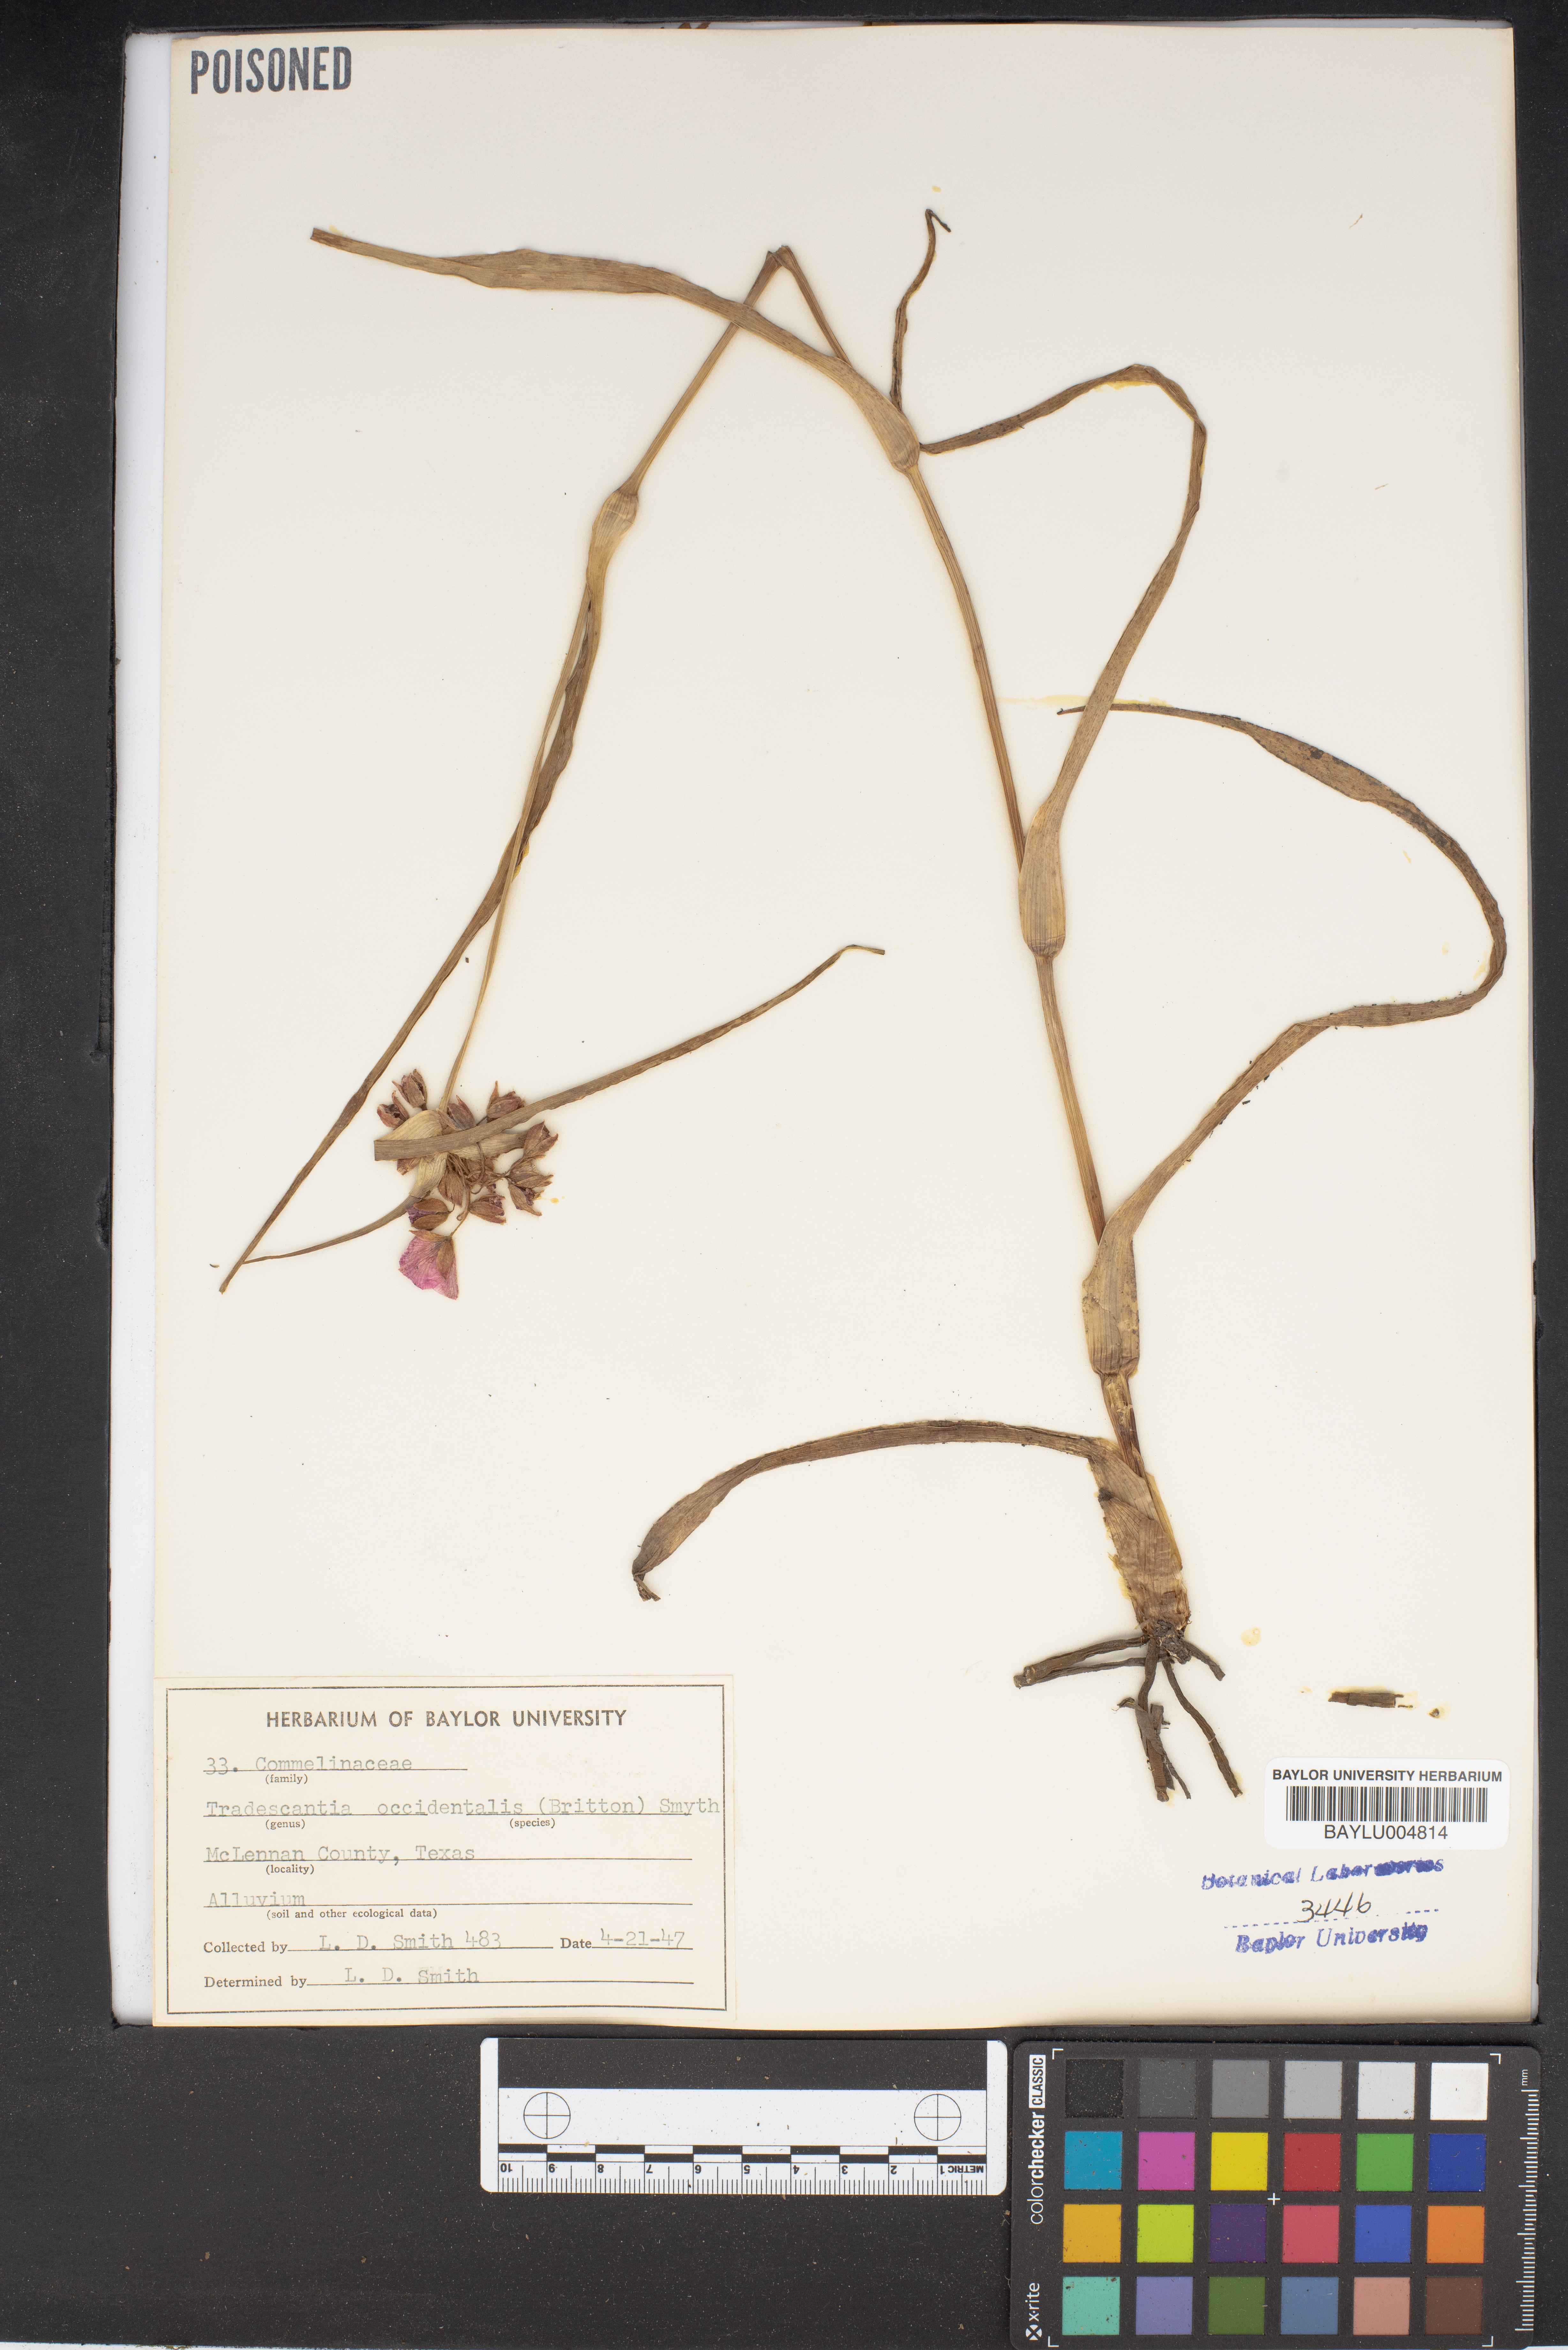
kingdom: Plantae
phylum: Tracheophyta
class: Liliopsida
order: Commelinales
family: Commelinaceae
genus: Tradescantia
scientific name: Tradescantia occidentalis
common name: Prairie spiderwort
